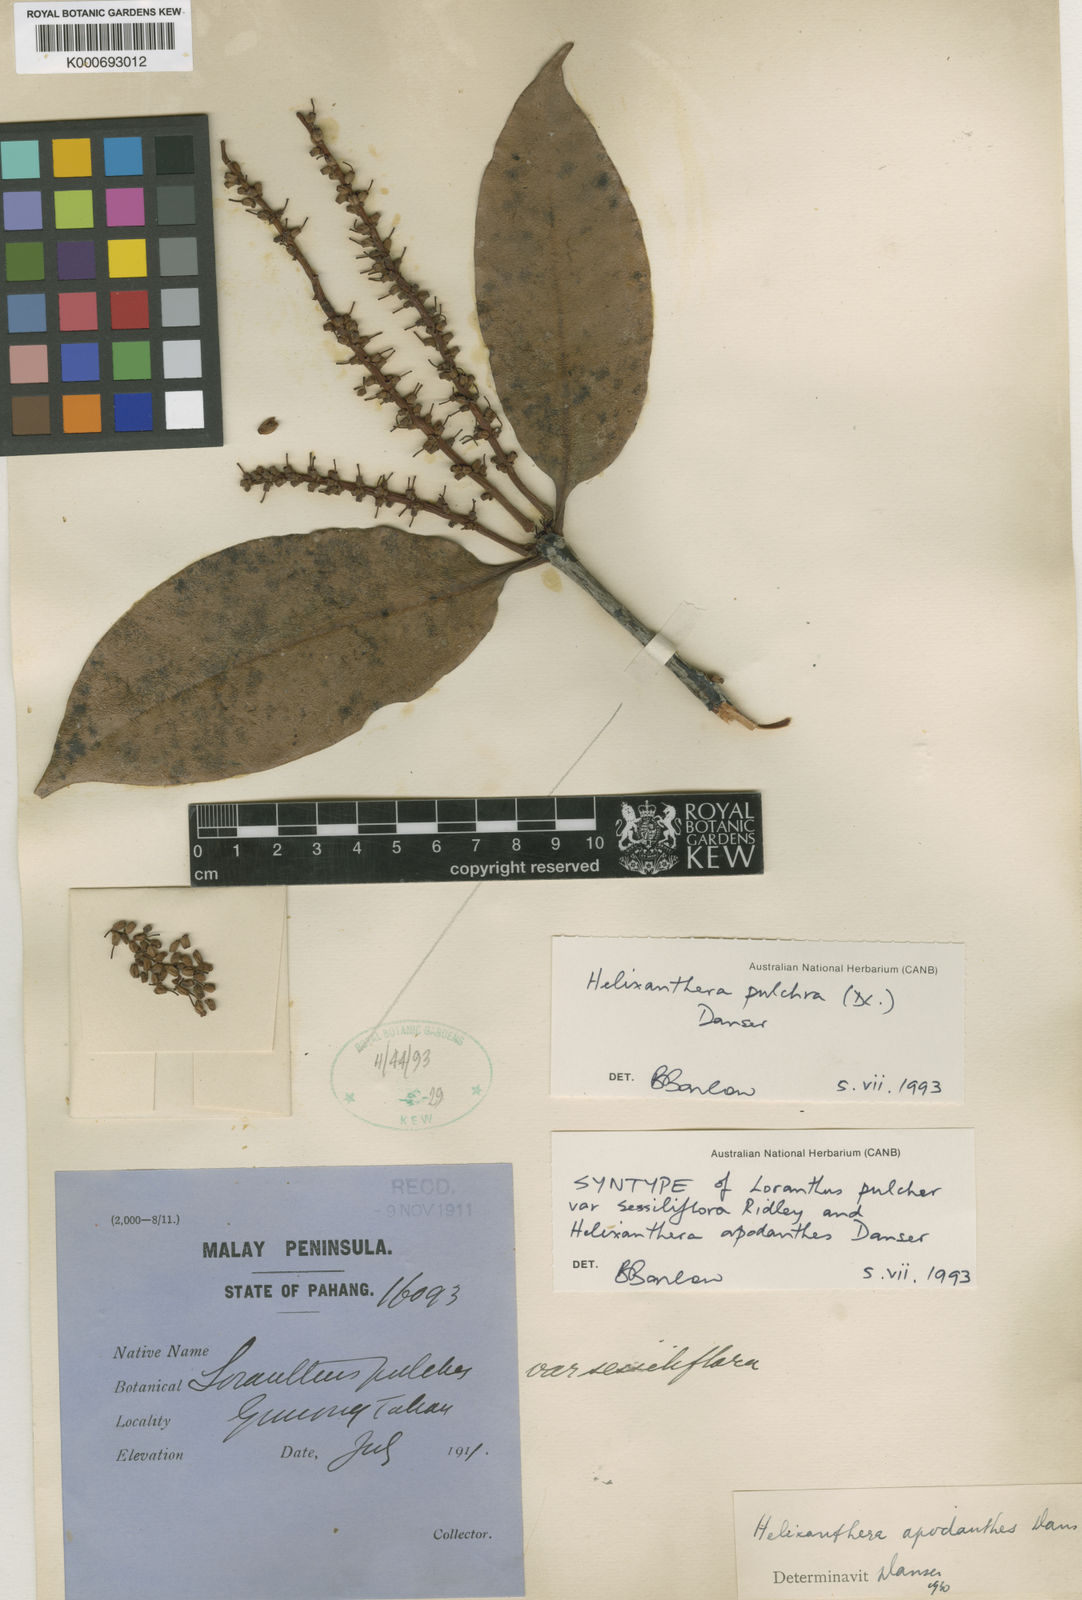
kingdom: Plantae
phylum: Tracheophyta
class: Magnoliopsida
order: Santalales
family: Loranthaceae
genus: Helixanthera
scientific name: Helixanthera pulchra
